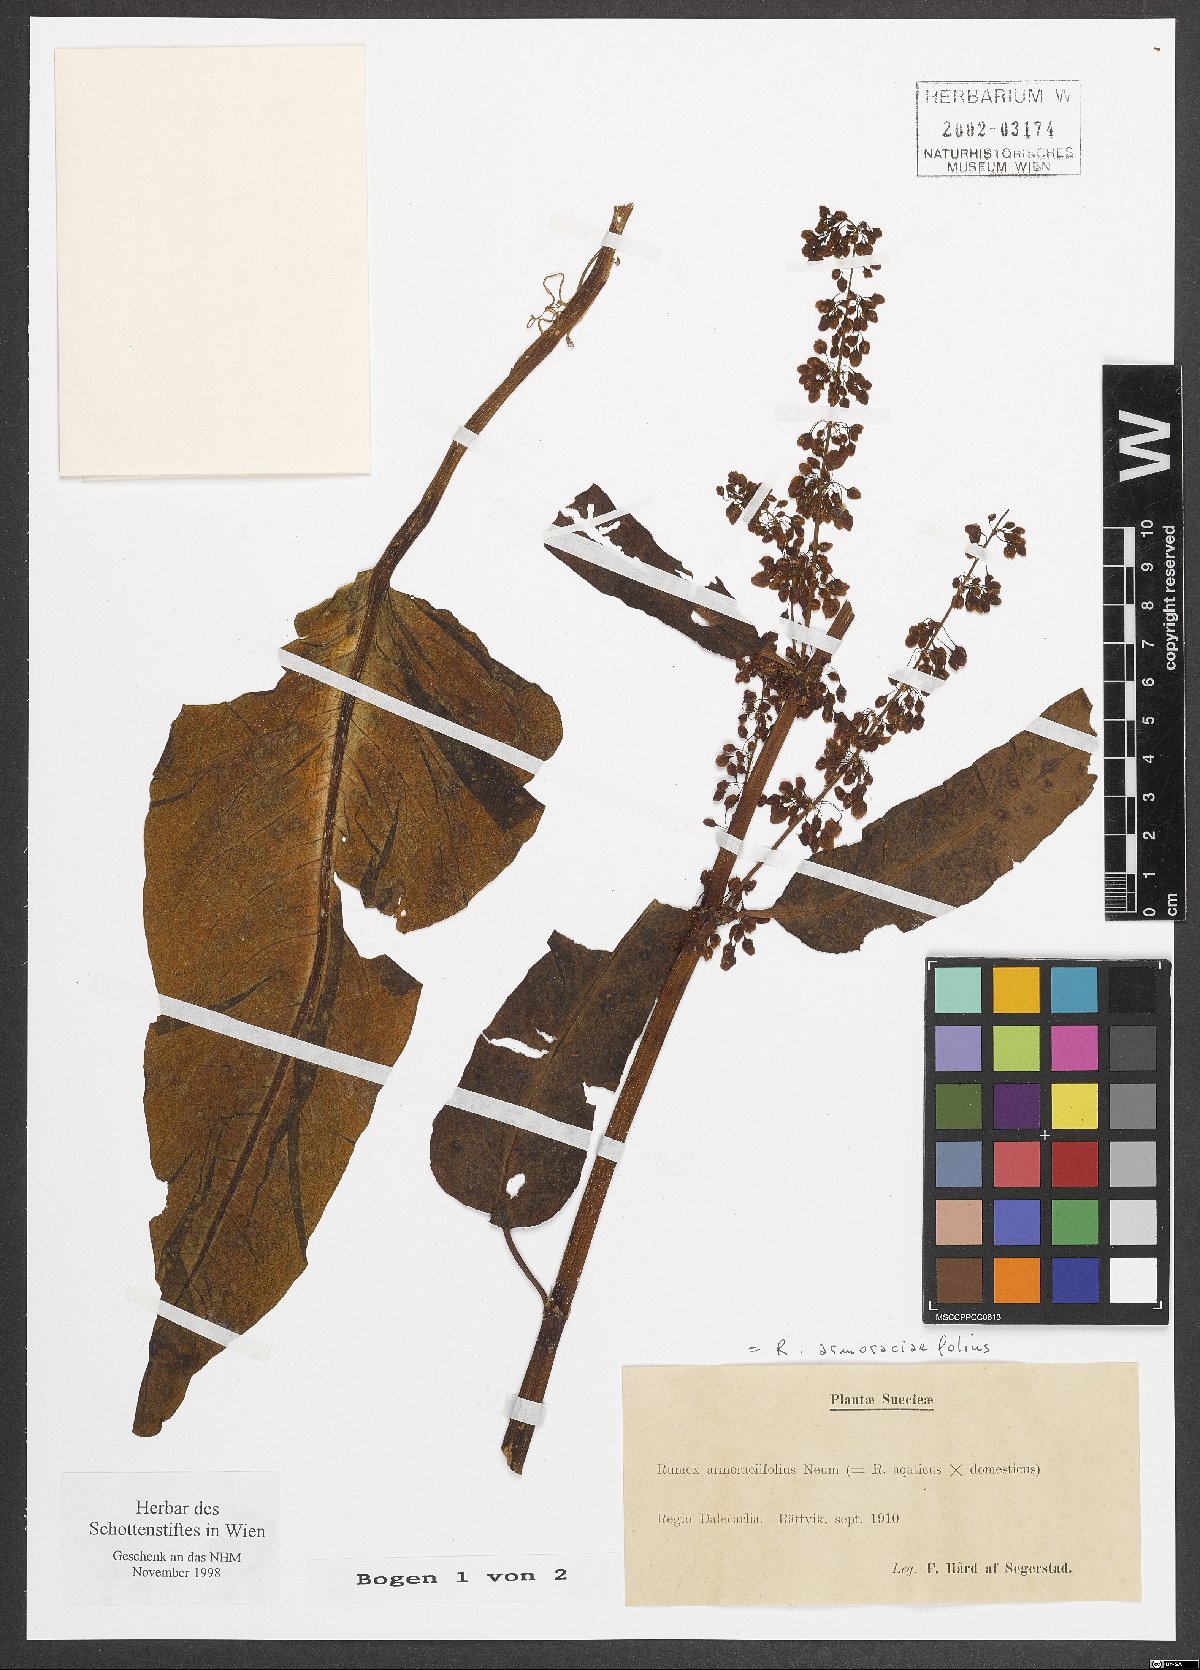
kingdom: Plantae
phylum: Tracheophyta
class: Magnoliopsida
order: Caryophyllales
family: Polygonaceae
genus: Rumex
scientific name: Rumex
